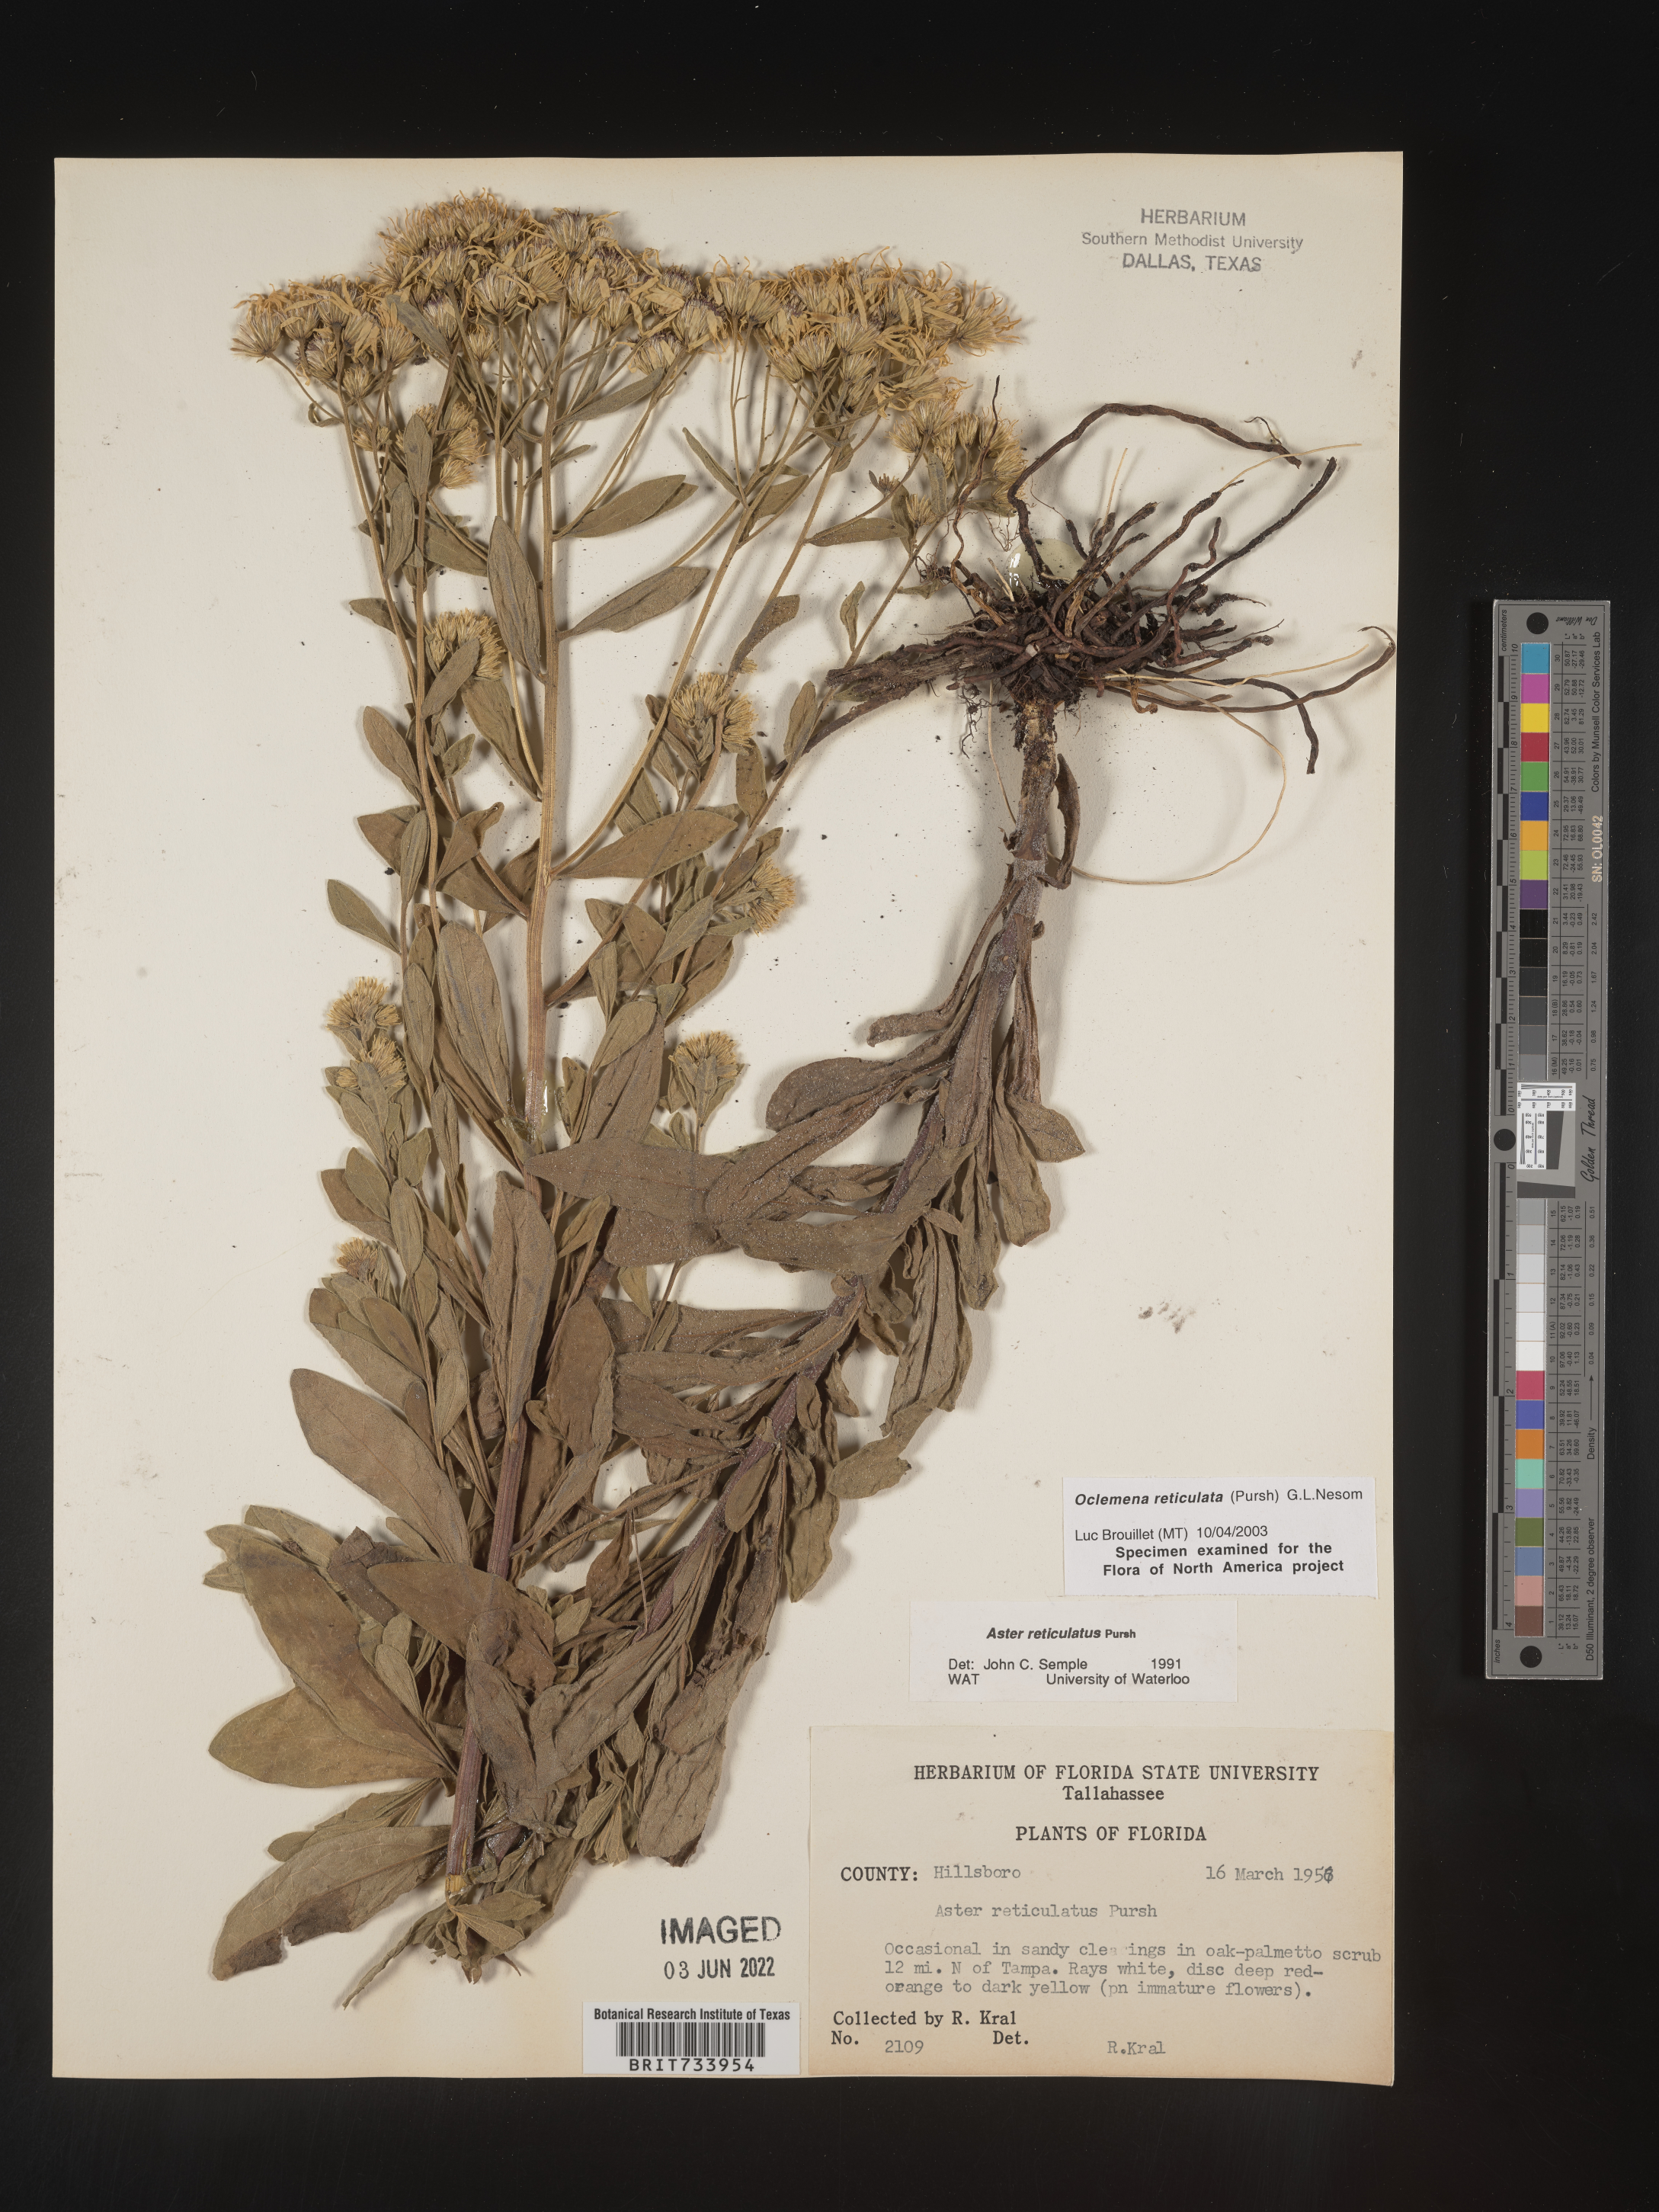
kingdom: Plantae
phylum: Tracheophyta
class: Magnoliopsida
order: Asterales
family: Asteraceae
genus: Oclemena
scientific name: Oclemena reticulata
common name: Pinebarren aster
